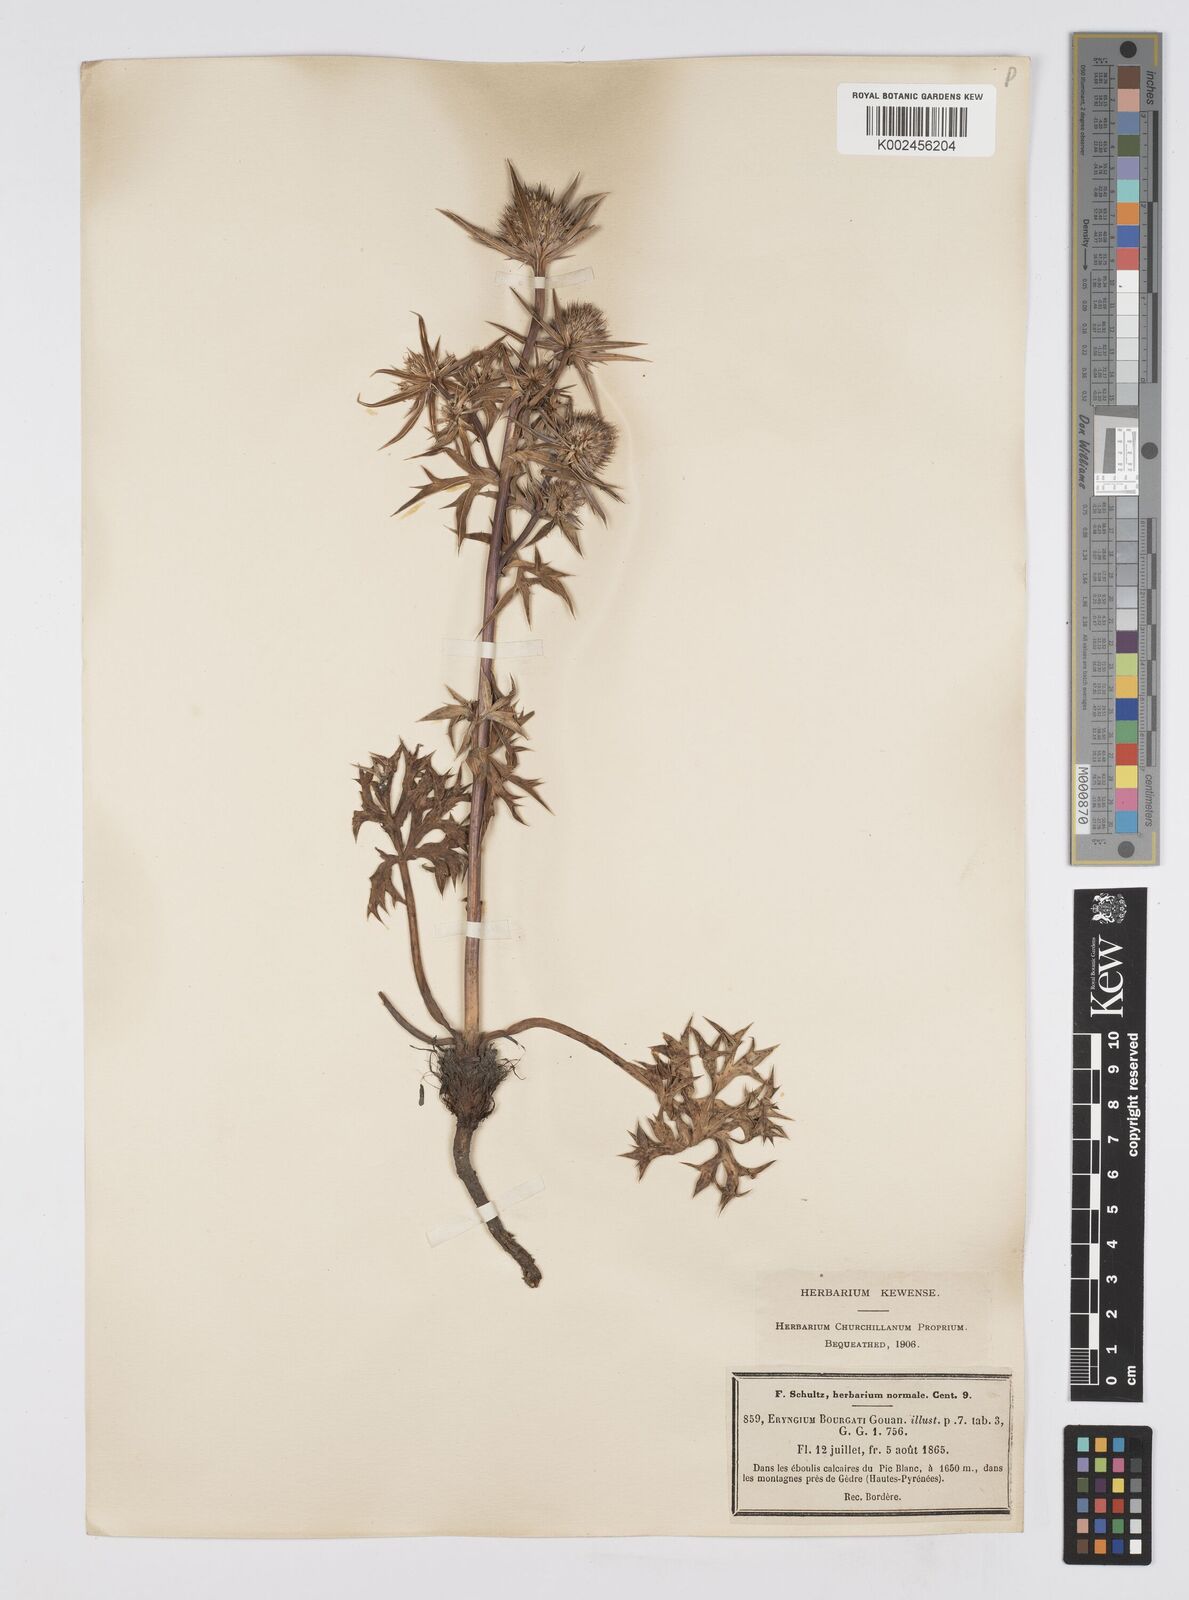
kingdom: Plantae
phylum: Tracheophyta
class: Magnoliopsida
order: Apiales
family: Apiaceae
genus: Eryngium
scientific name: Eryngium bourgatii
